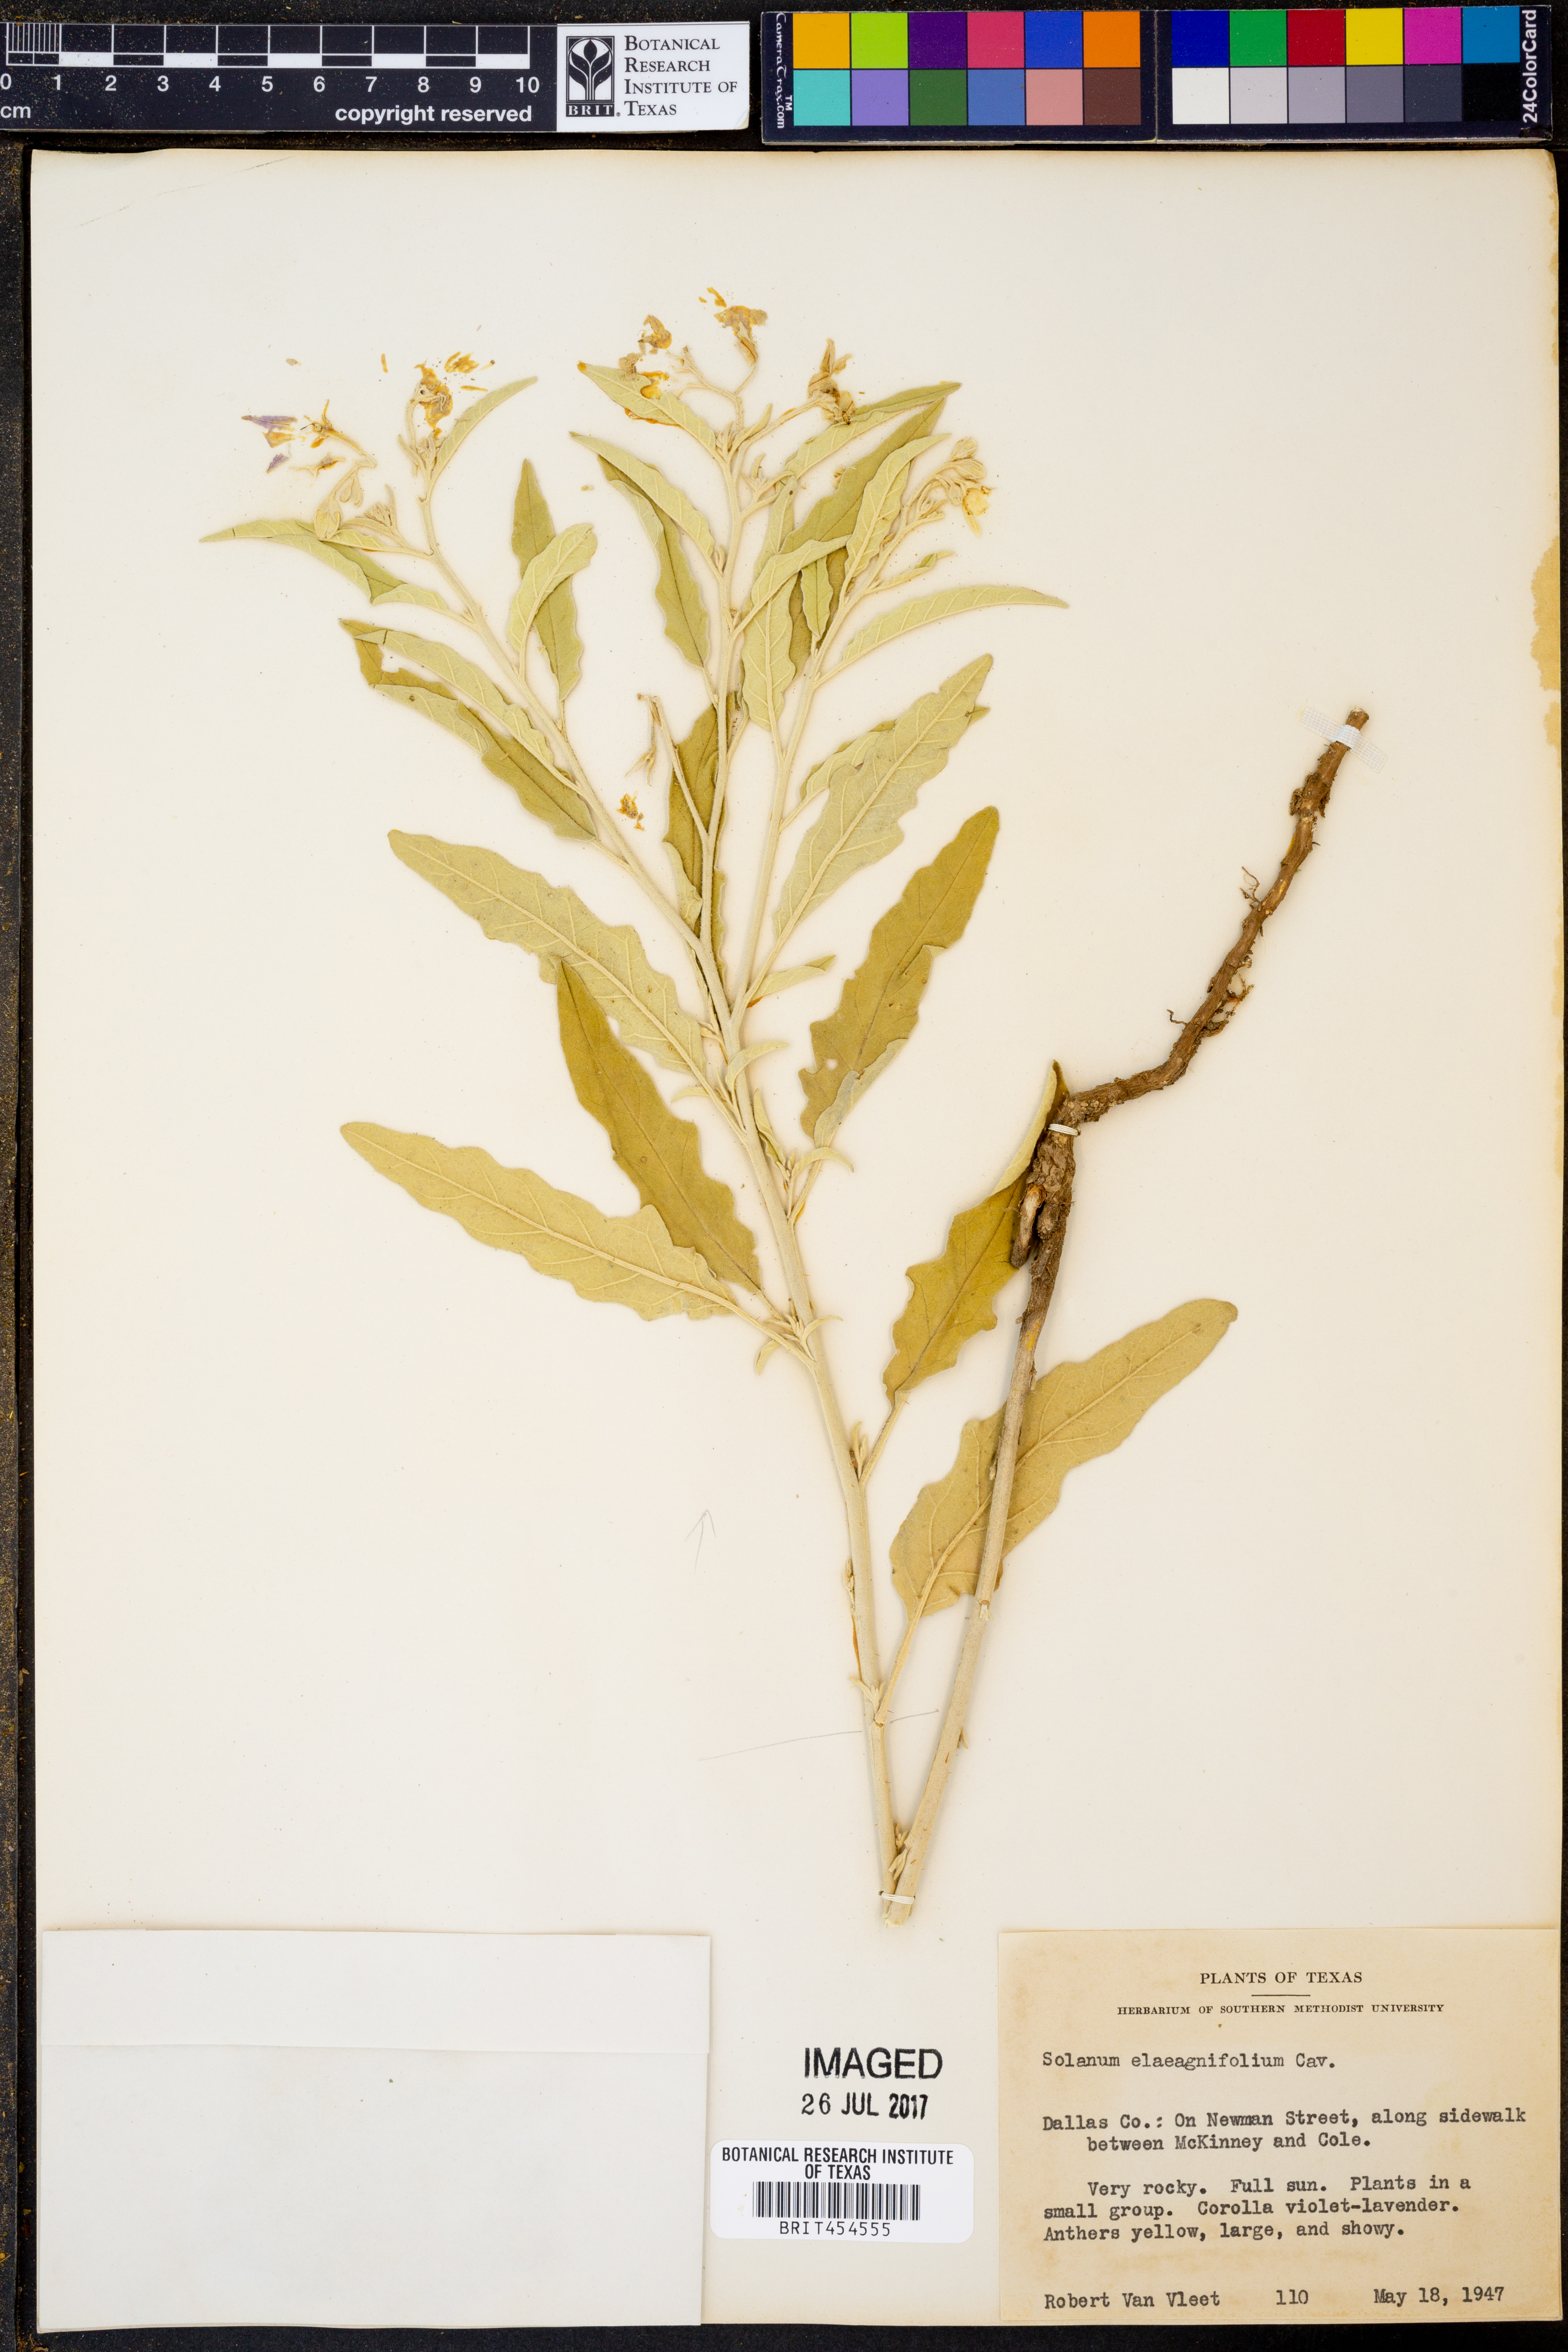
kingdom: Plantae
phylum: Tracheophyta
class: Magnoliopsida
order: Solanales
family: Solanaceae
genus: Solanum
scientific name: Solanum elaeagnifolium
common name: Silverleaf nightshade
